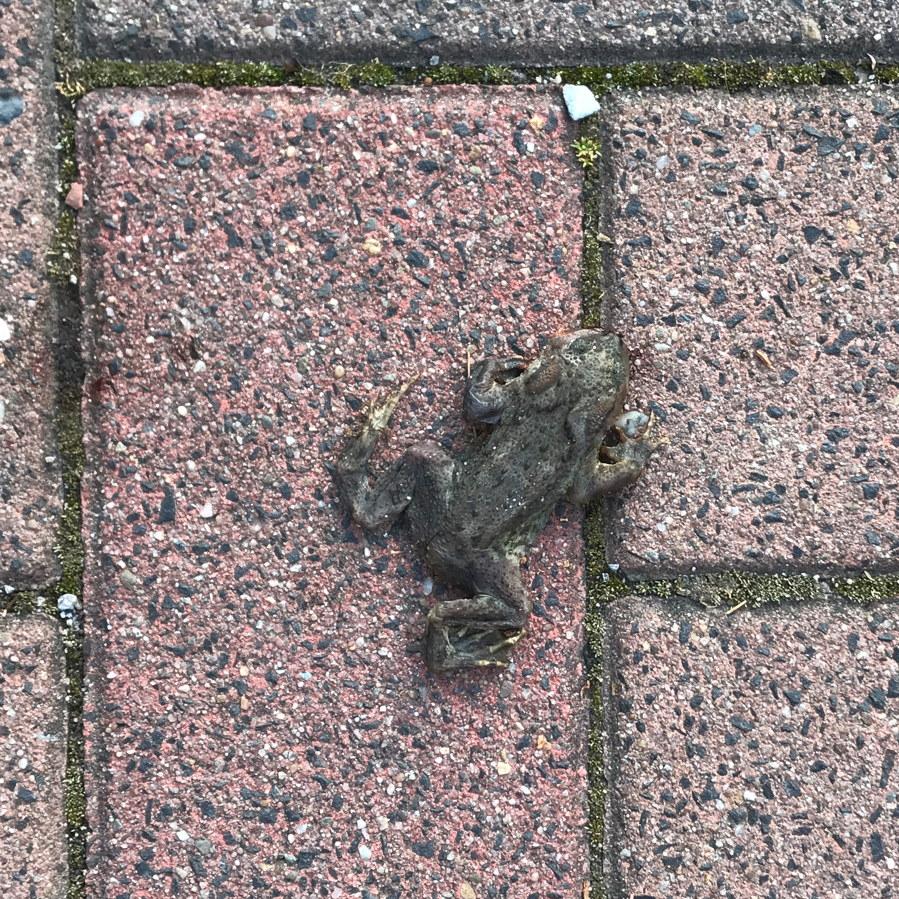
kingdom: Animalia
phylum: Chordata
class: Amphibia
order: Anura
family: Bufonidae
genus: Bufo
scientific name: Bufo bufo
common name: Common toad
